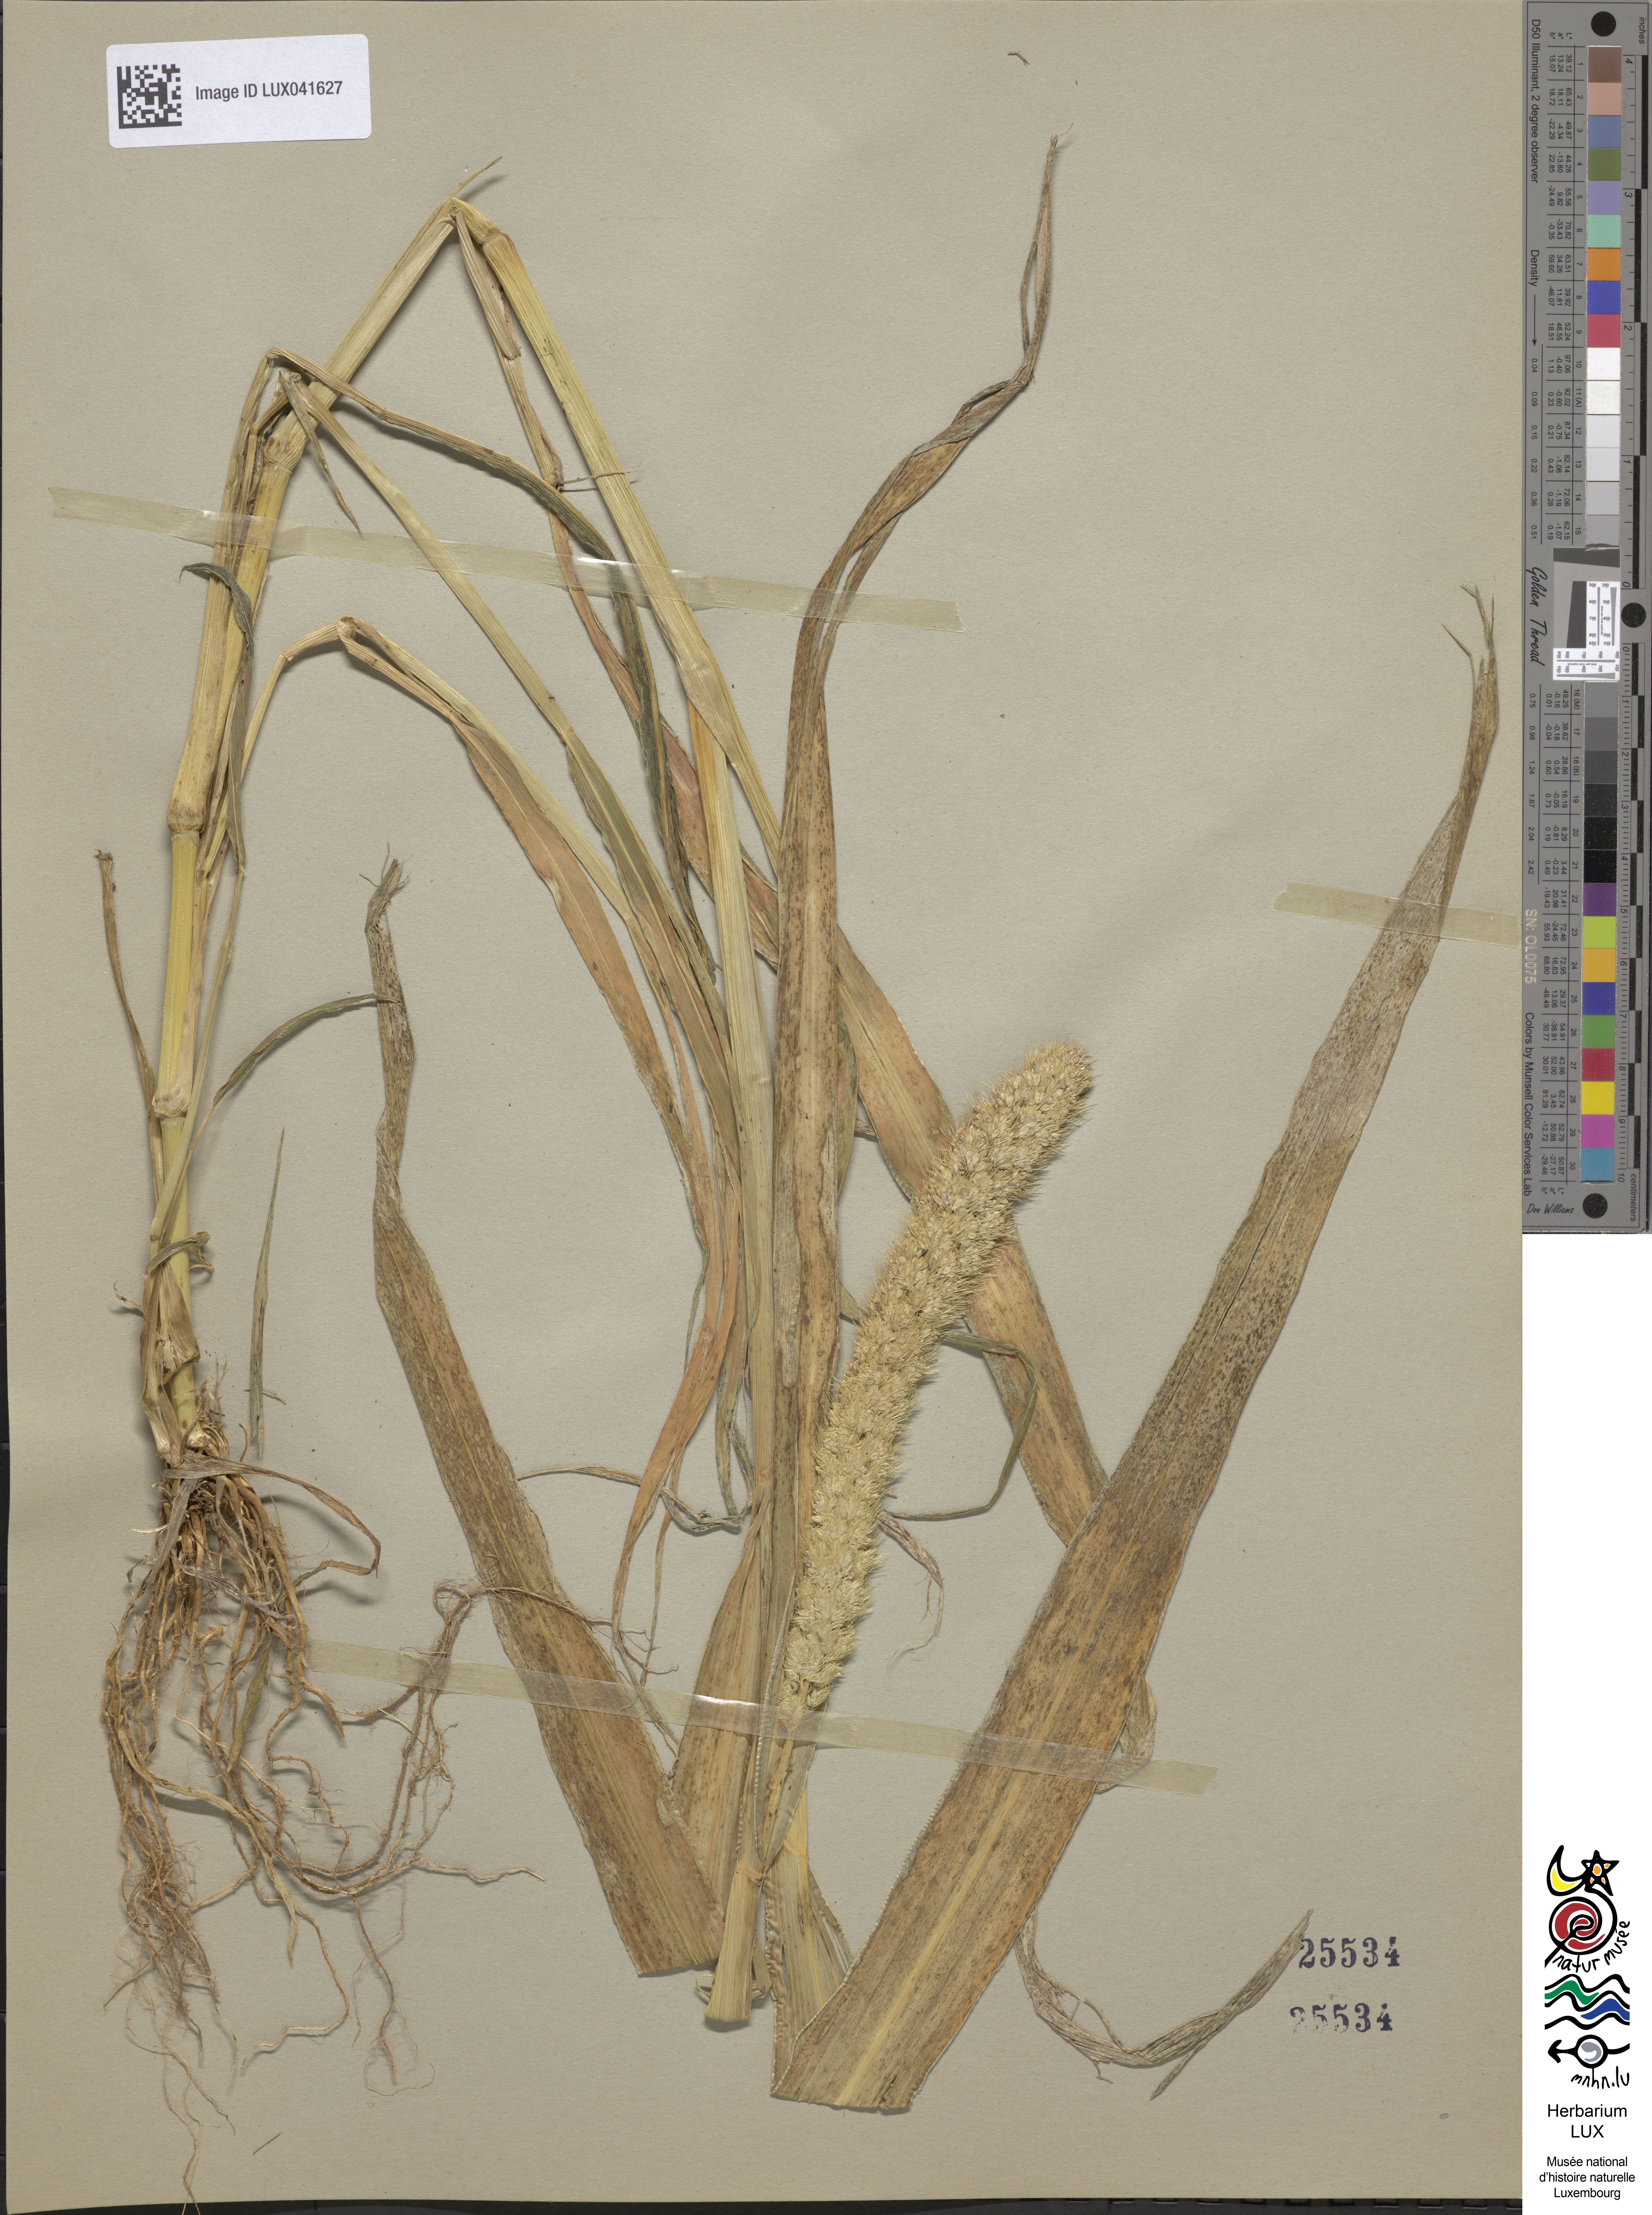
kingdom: Plantae
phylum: Tracheophyta
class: Liliopsida
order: Poales
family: Poaceae
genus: Setaria
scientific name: Setaria italica
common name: Foxtail bristle-grass
